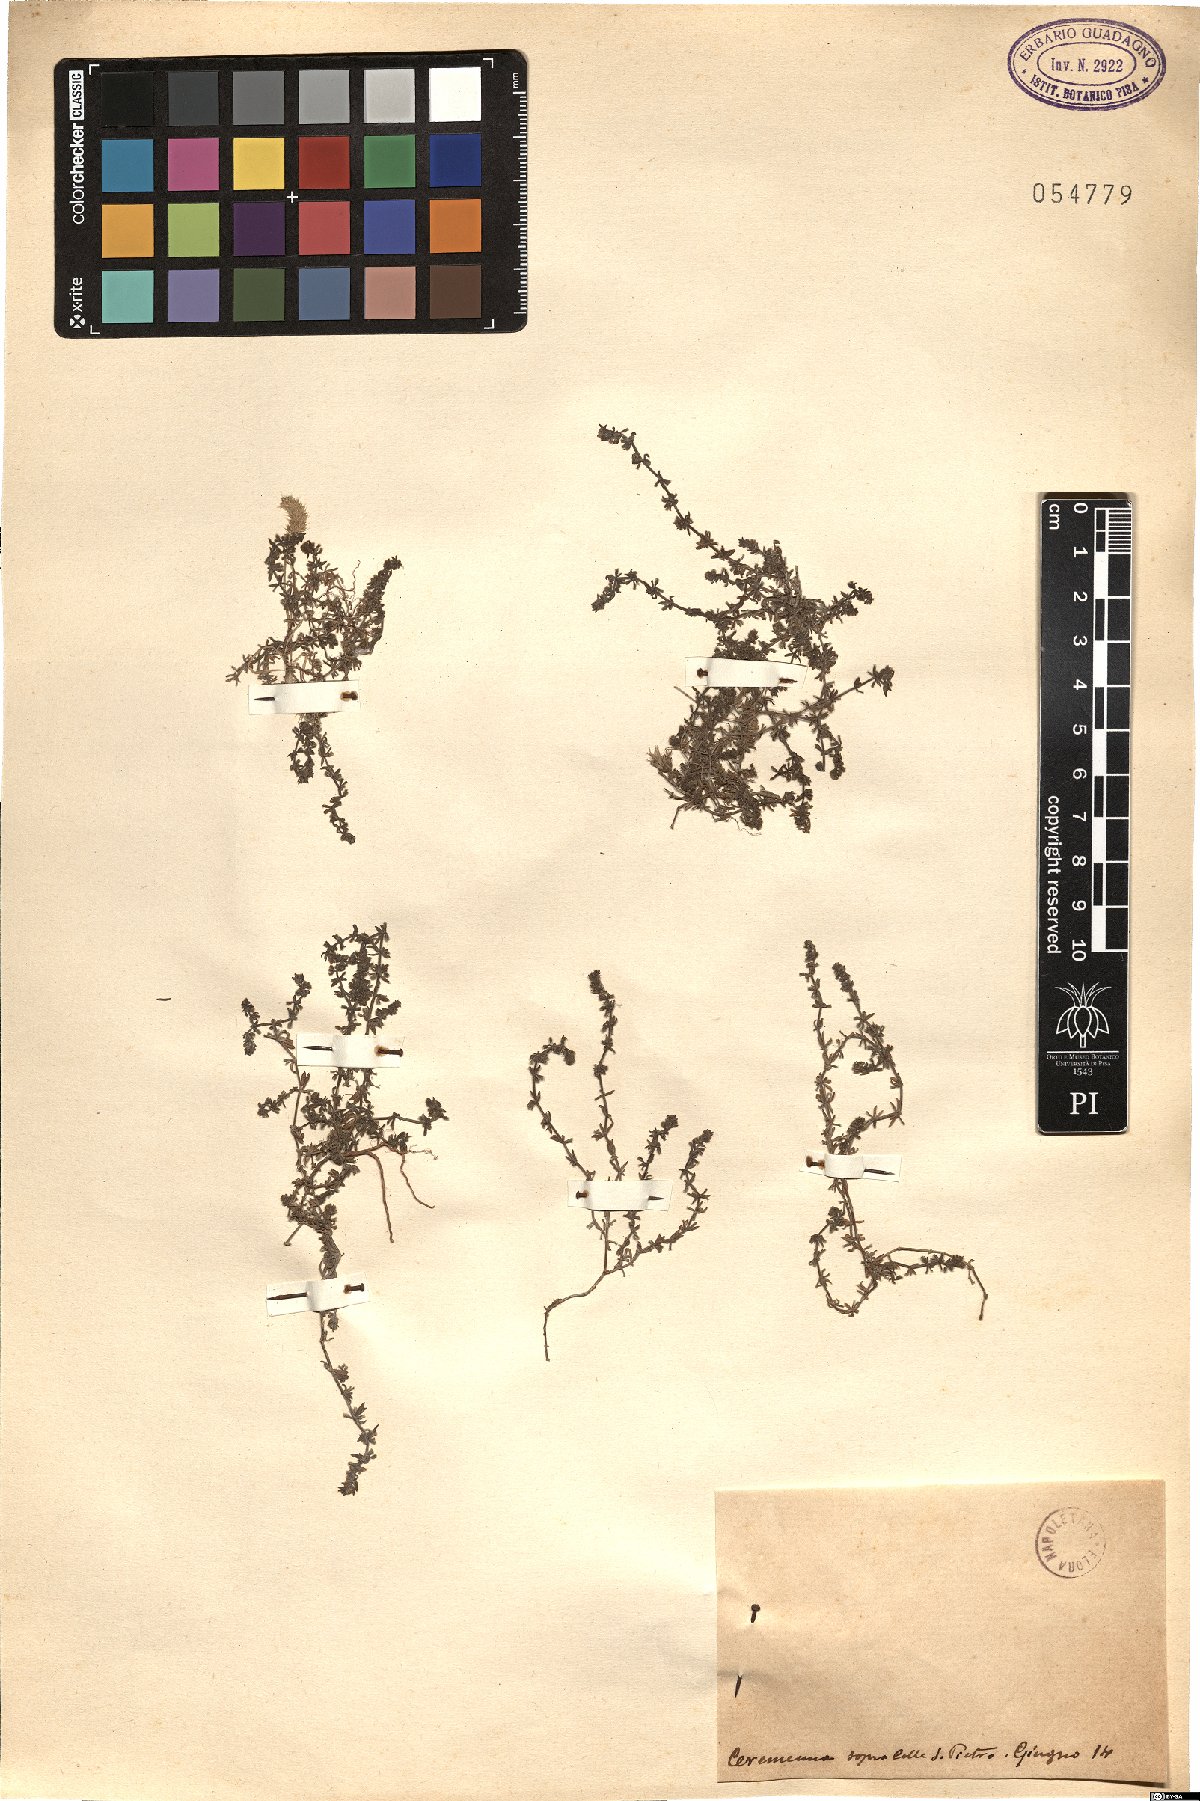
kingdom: Animalia
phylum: Arthropoda
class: Insecta
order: Diptera
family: Psychodidae
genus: Vaillantia
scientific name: Vaillantia
